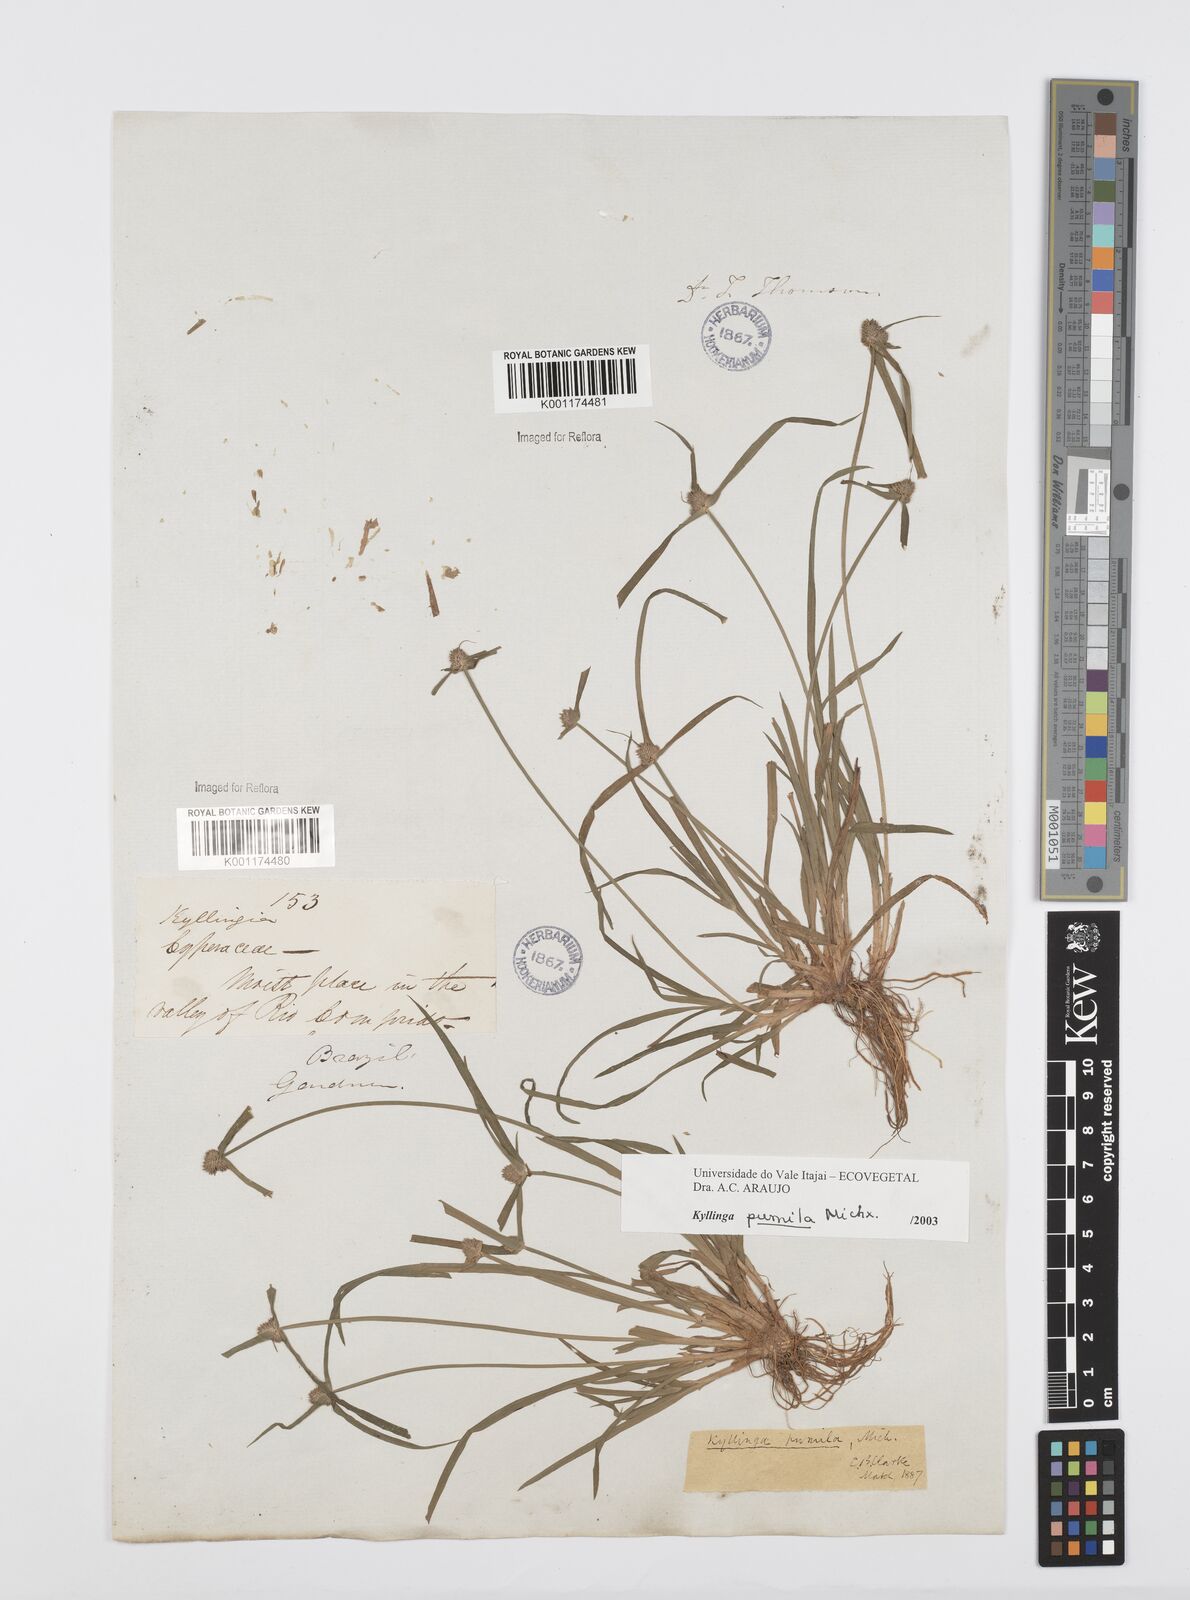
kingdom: Plantae
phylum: Tracheophyta
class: Liliopsida
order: Poales
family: Cyperaceae
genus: Cyperus
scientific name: Cyperus
